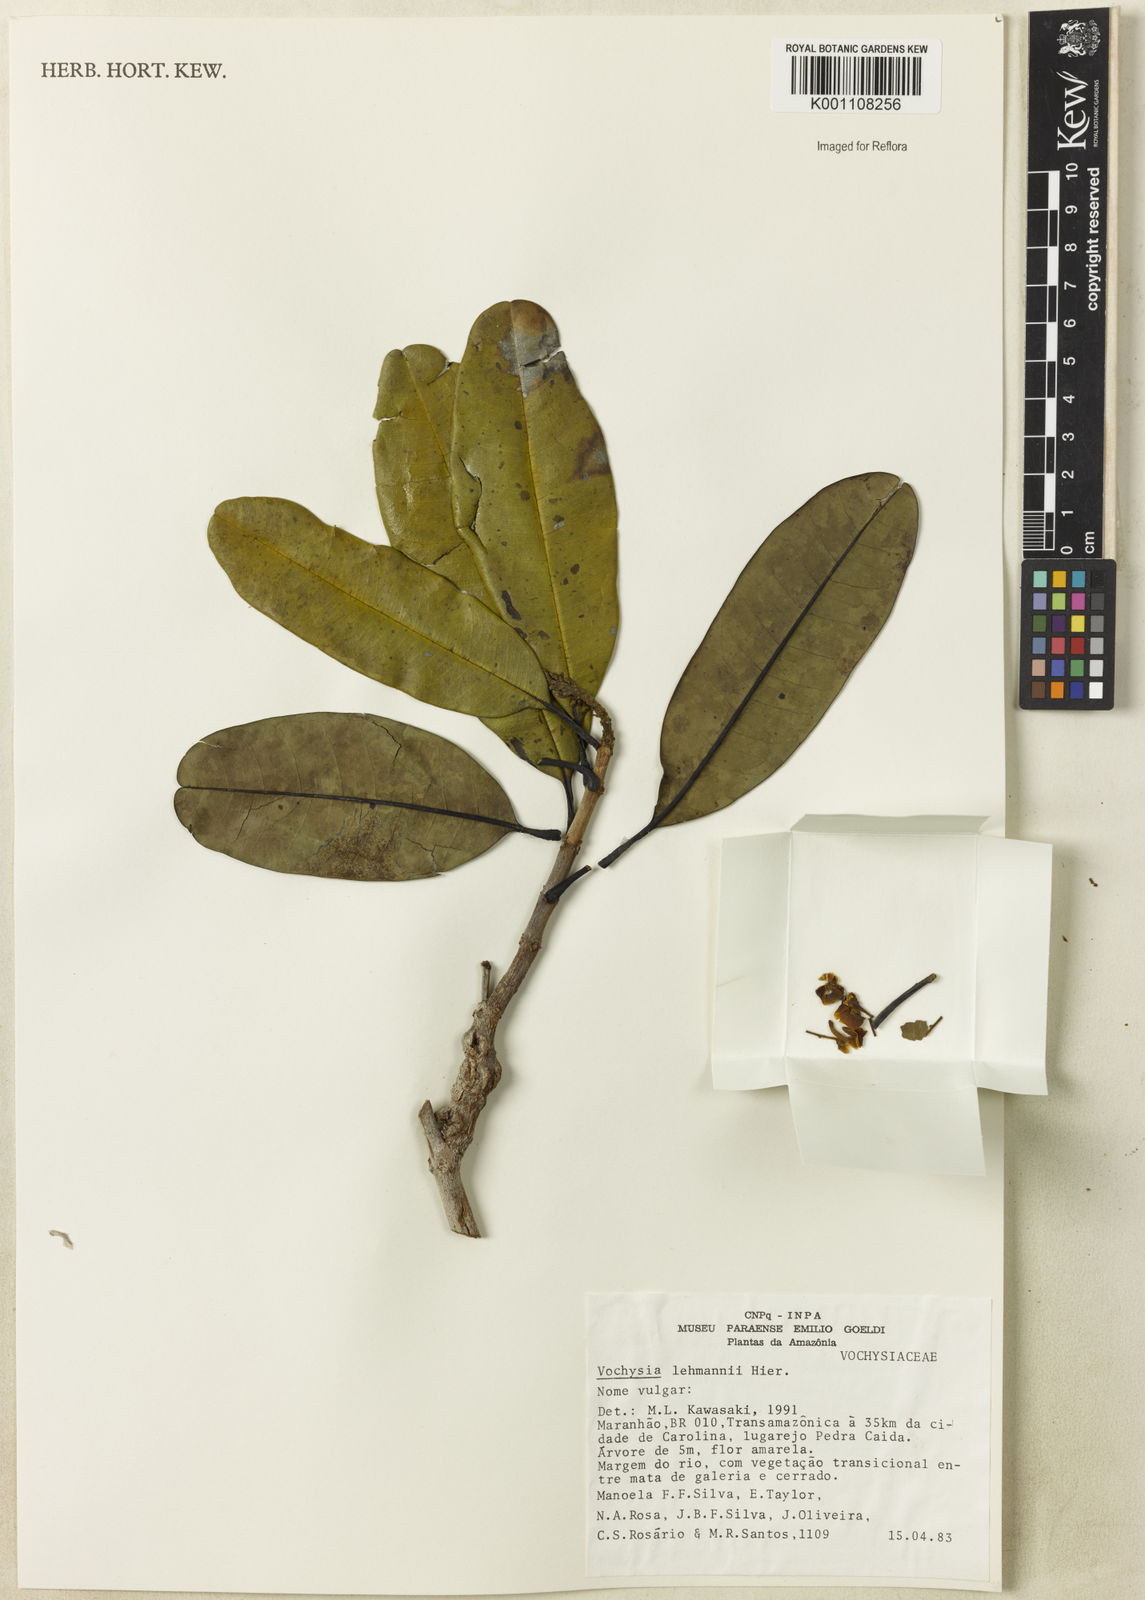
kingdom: Plantae
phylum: Tracheophyta
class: Magnoliopsida
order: Myrtales
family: Vochysiaceae
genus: Vochysia
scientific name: Vochysia lehmannii
